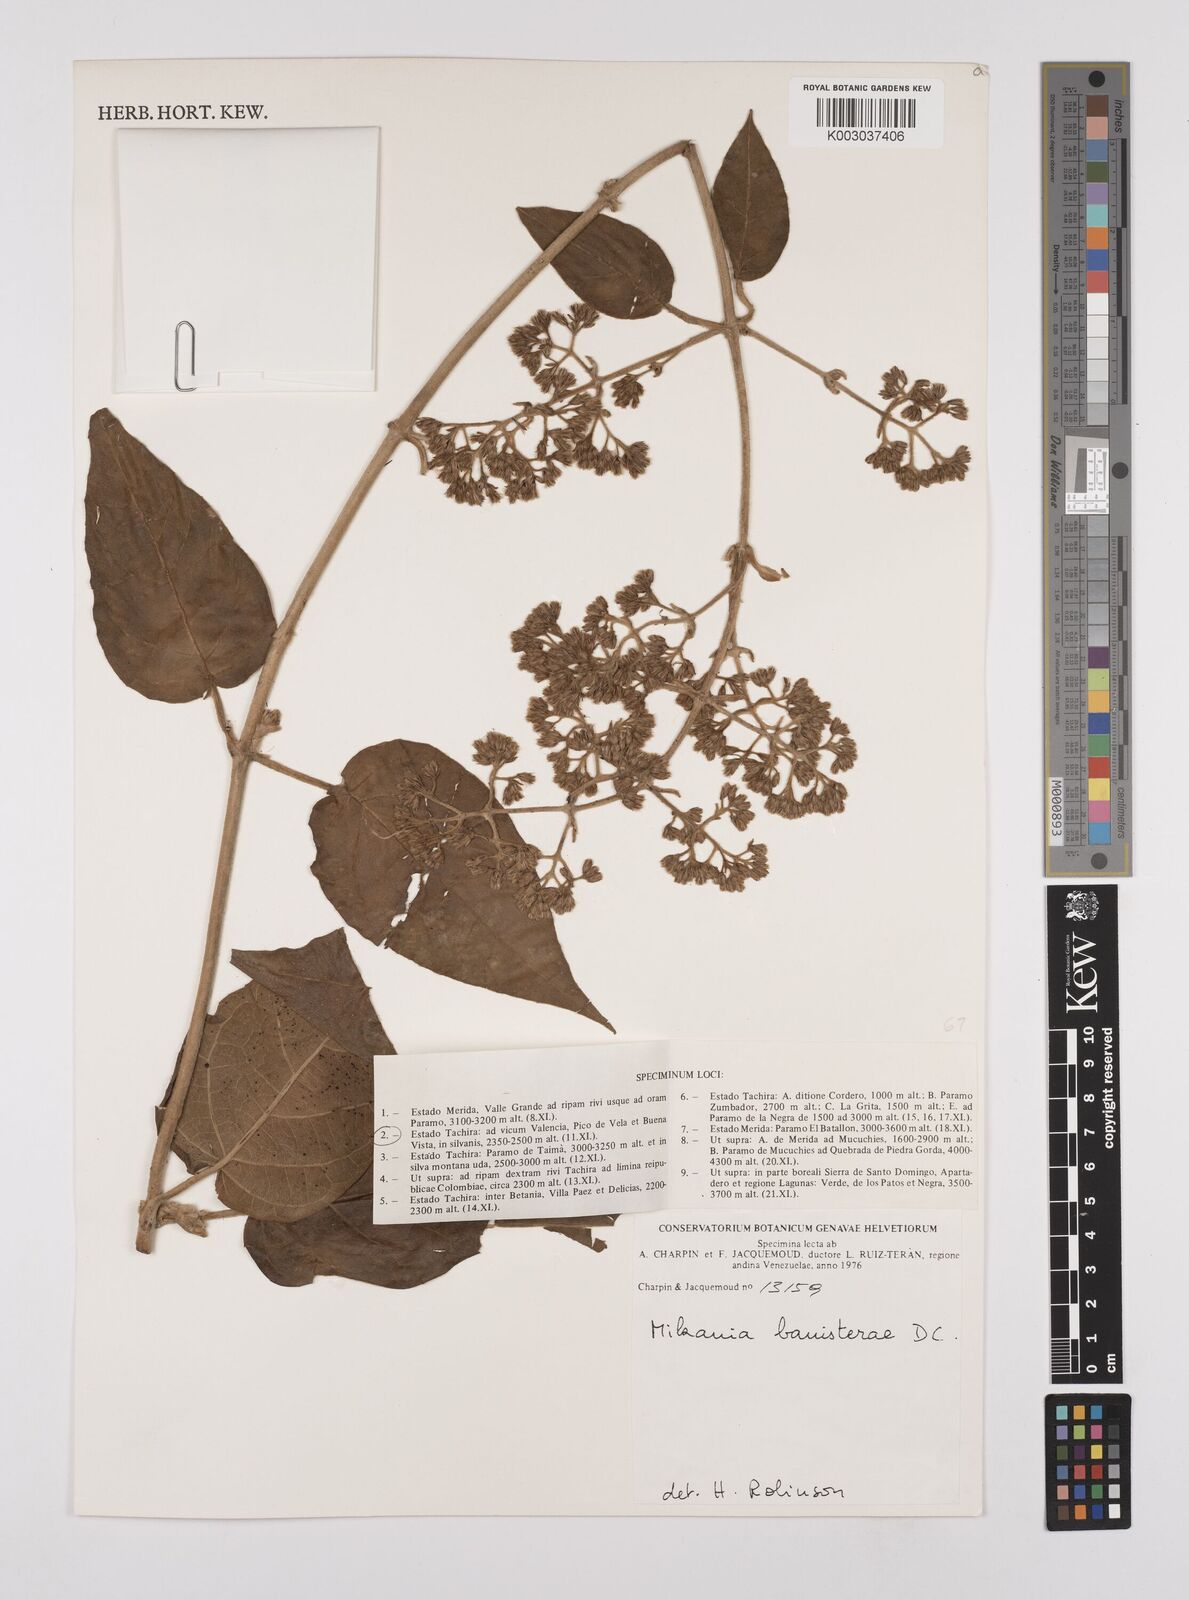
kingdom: Plantae
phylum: Tracheophyta
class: Magnoliopsida
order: Asterales
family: Asteraceae
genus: Mikania
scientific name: Mikania banisteriae
